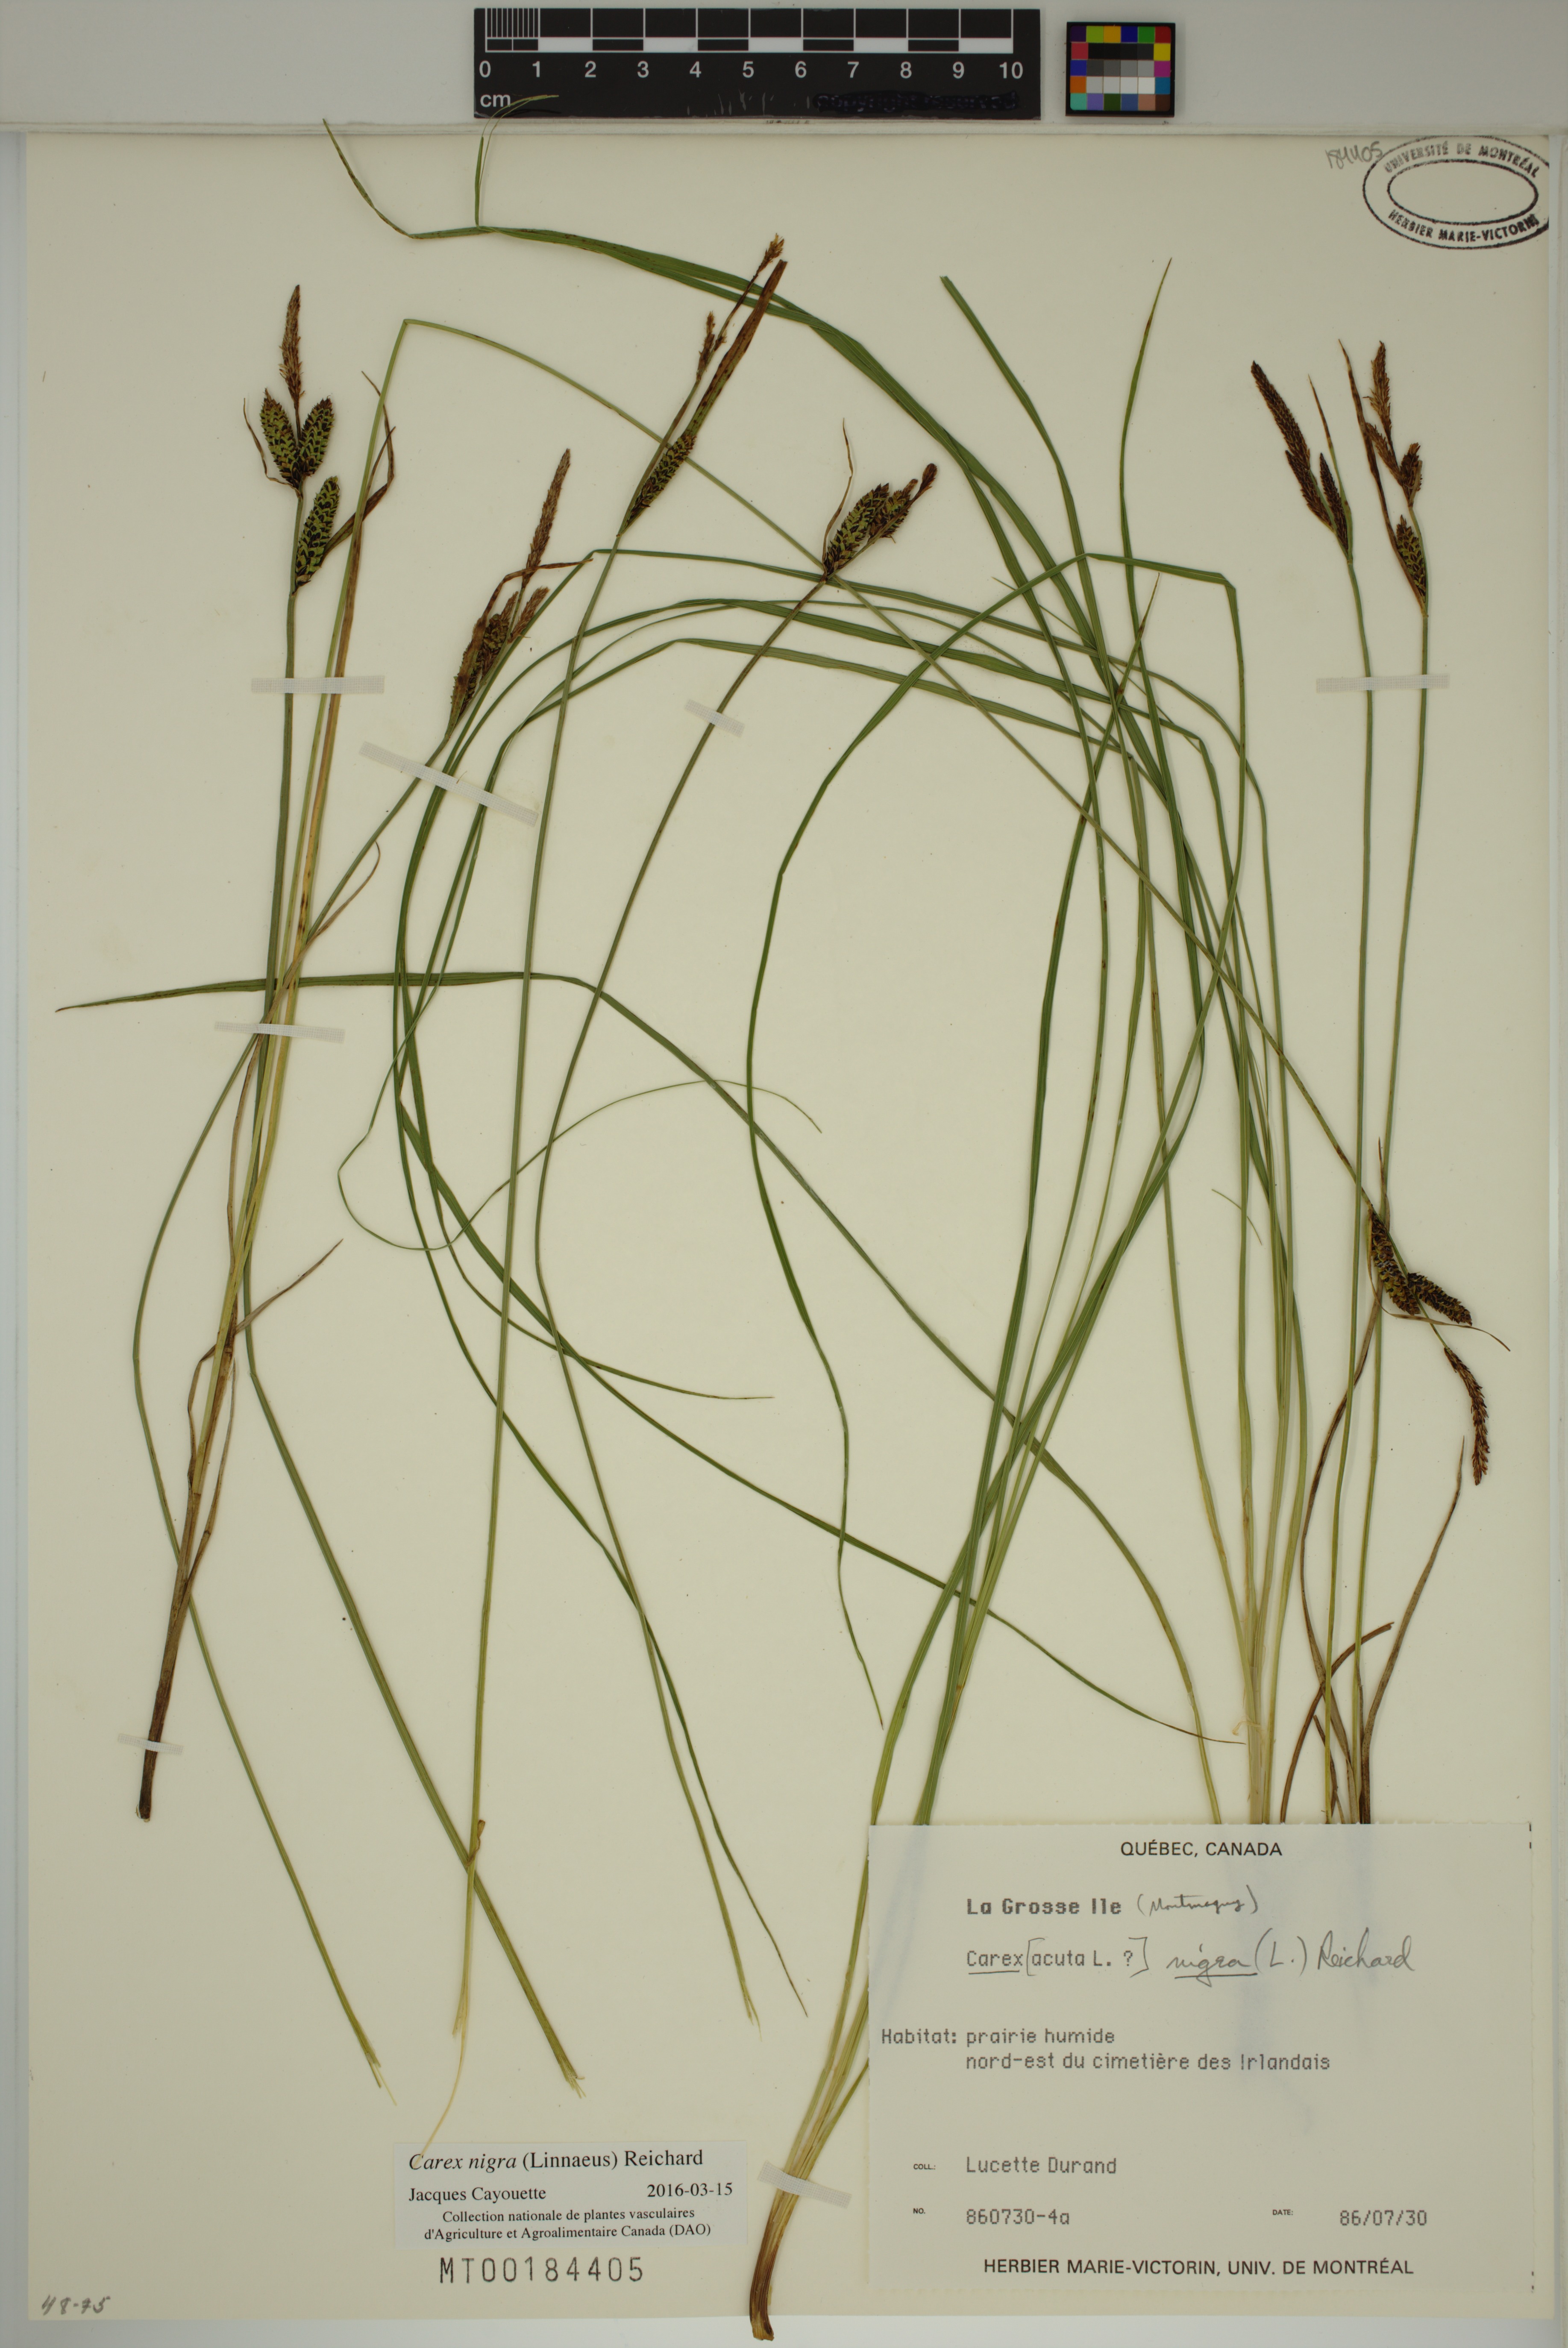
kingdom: Plantae
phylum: Tracheophyta
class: Liliopsida
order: Poales
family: Cyperaceae
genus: Carex
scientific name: Carex nigra
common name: Common sedge
